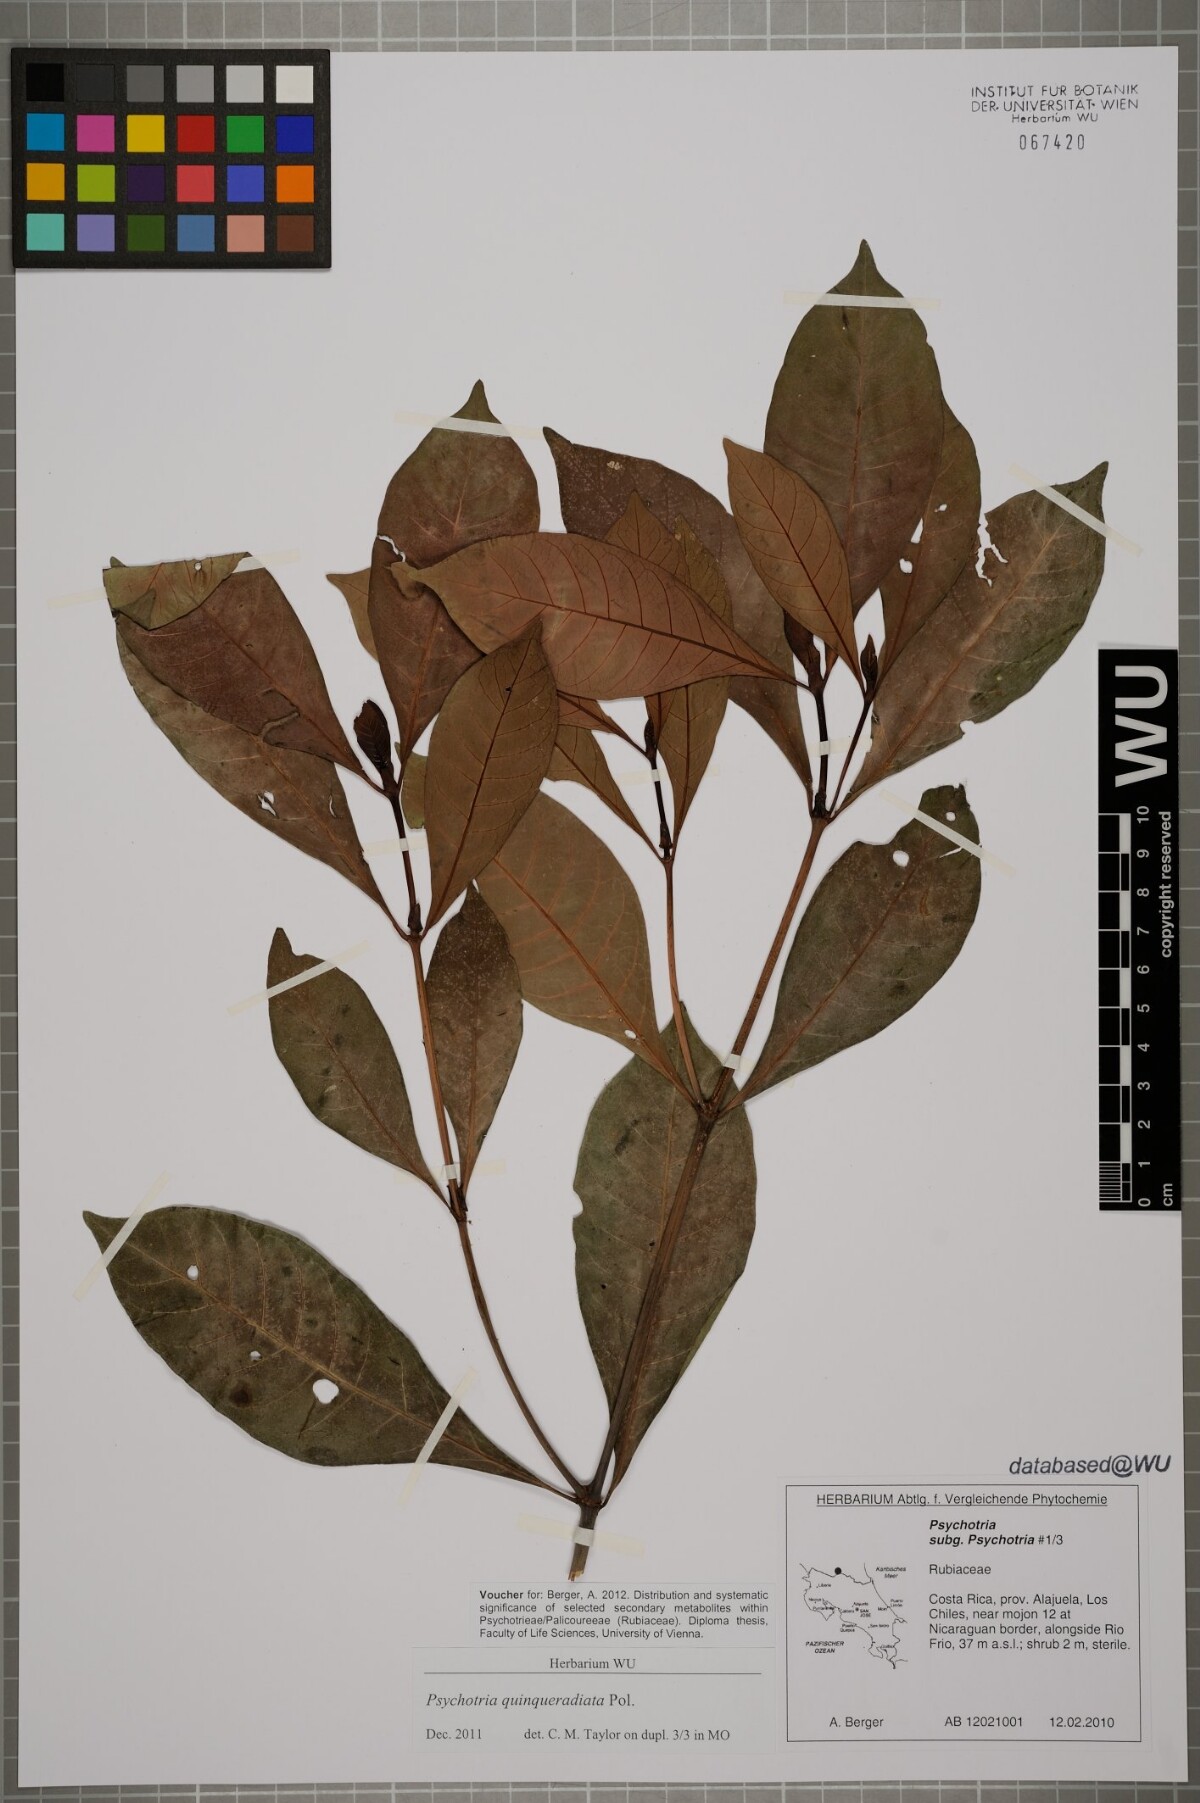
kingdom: Plantae
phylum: Tracheophyta
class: Magnoliopsida
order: Gentianales
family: Rubiaceae
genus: Psychotria
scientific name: Psychotria
